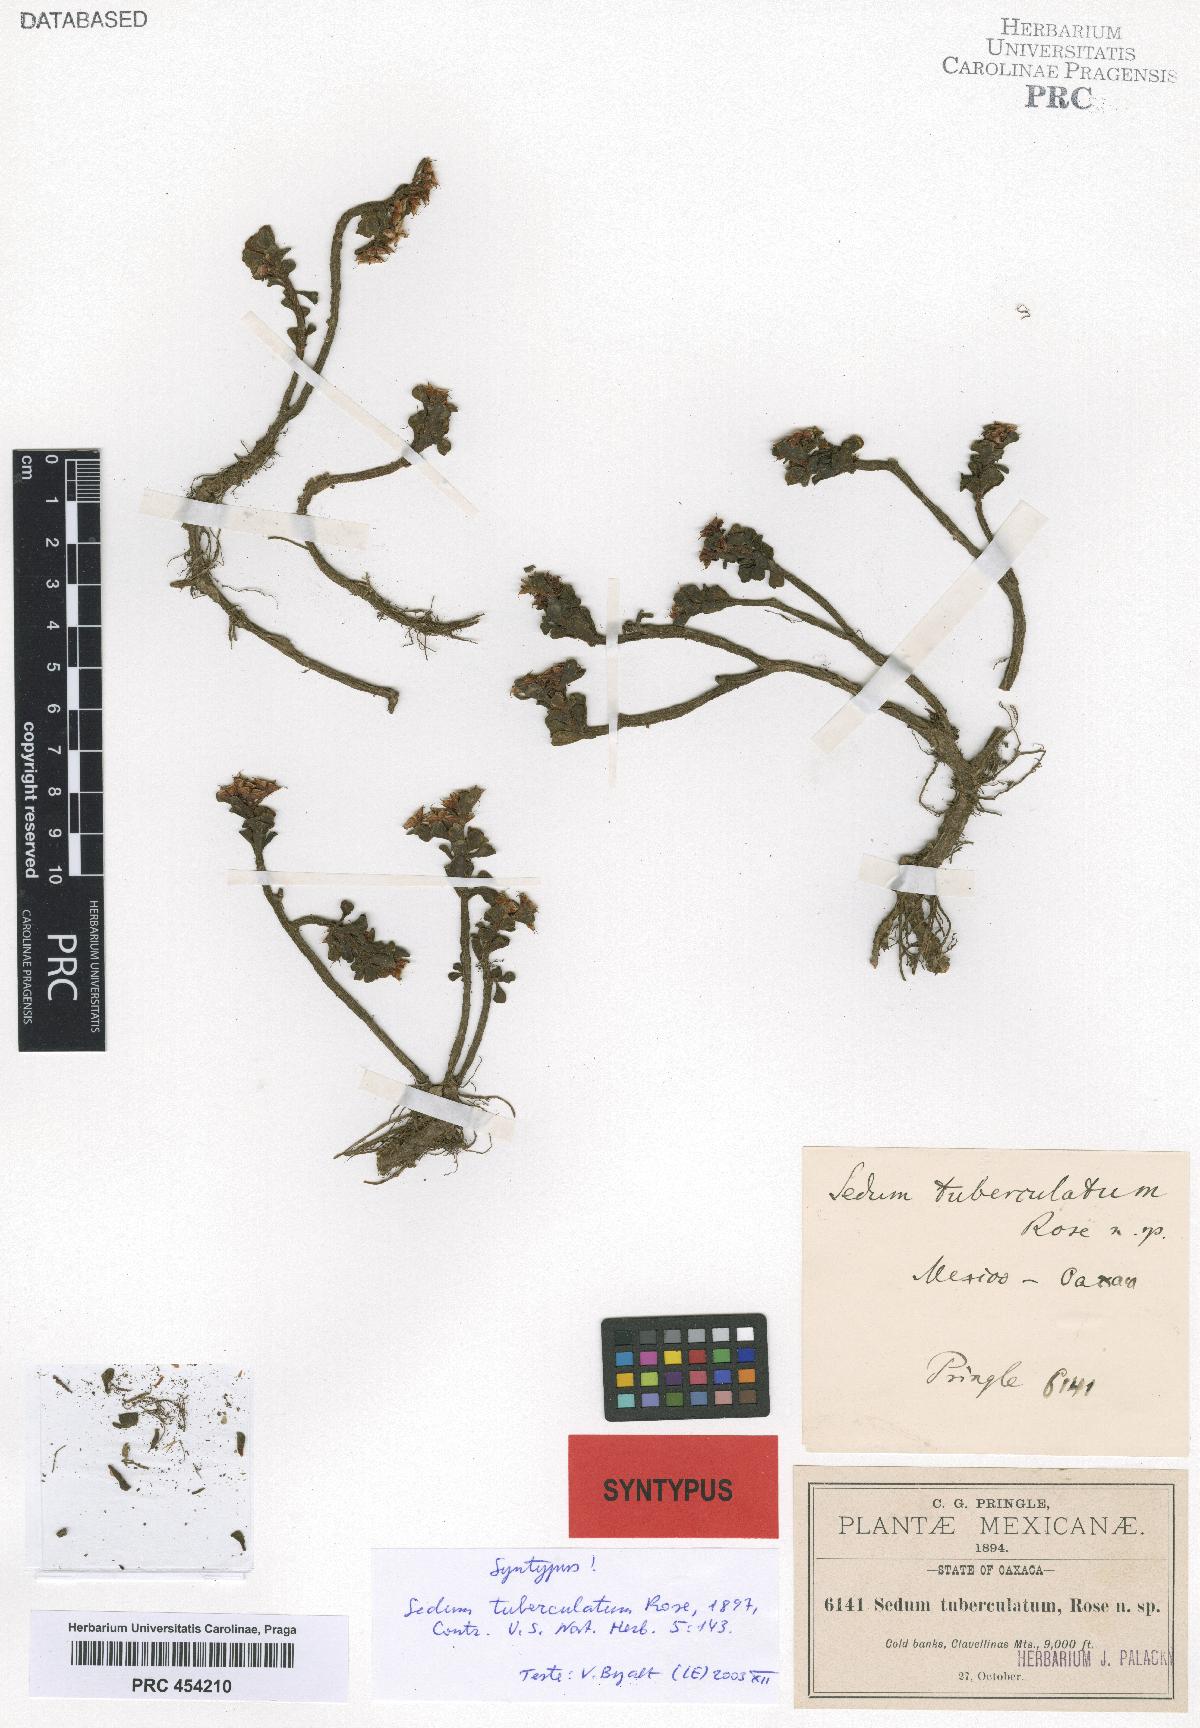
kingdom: Plantae
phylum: Tracheophyta
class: Magnoliopsida
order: Saxifragales
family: Crassulaceae
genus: Sedum
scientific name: Sedum tuberculatum
